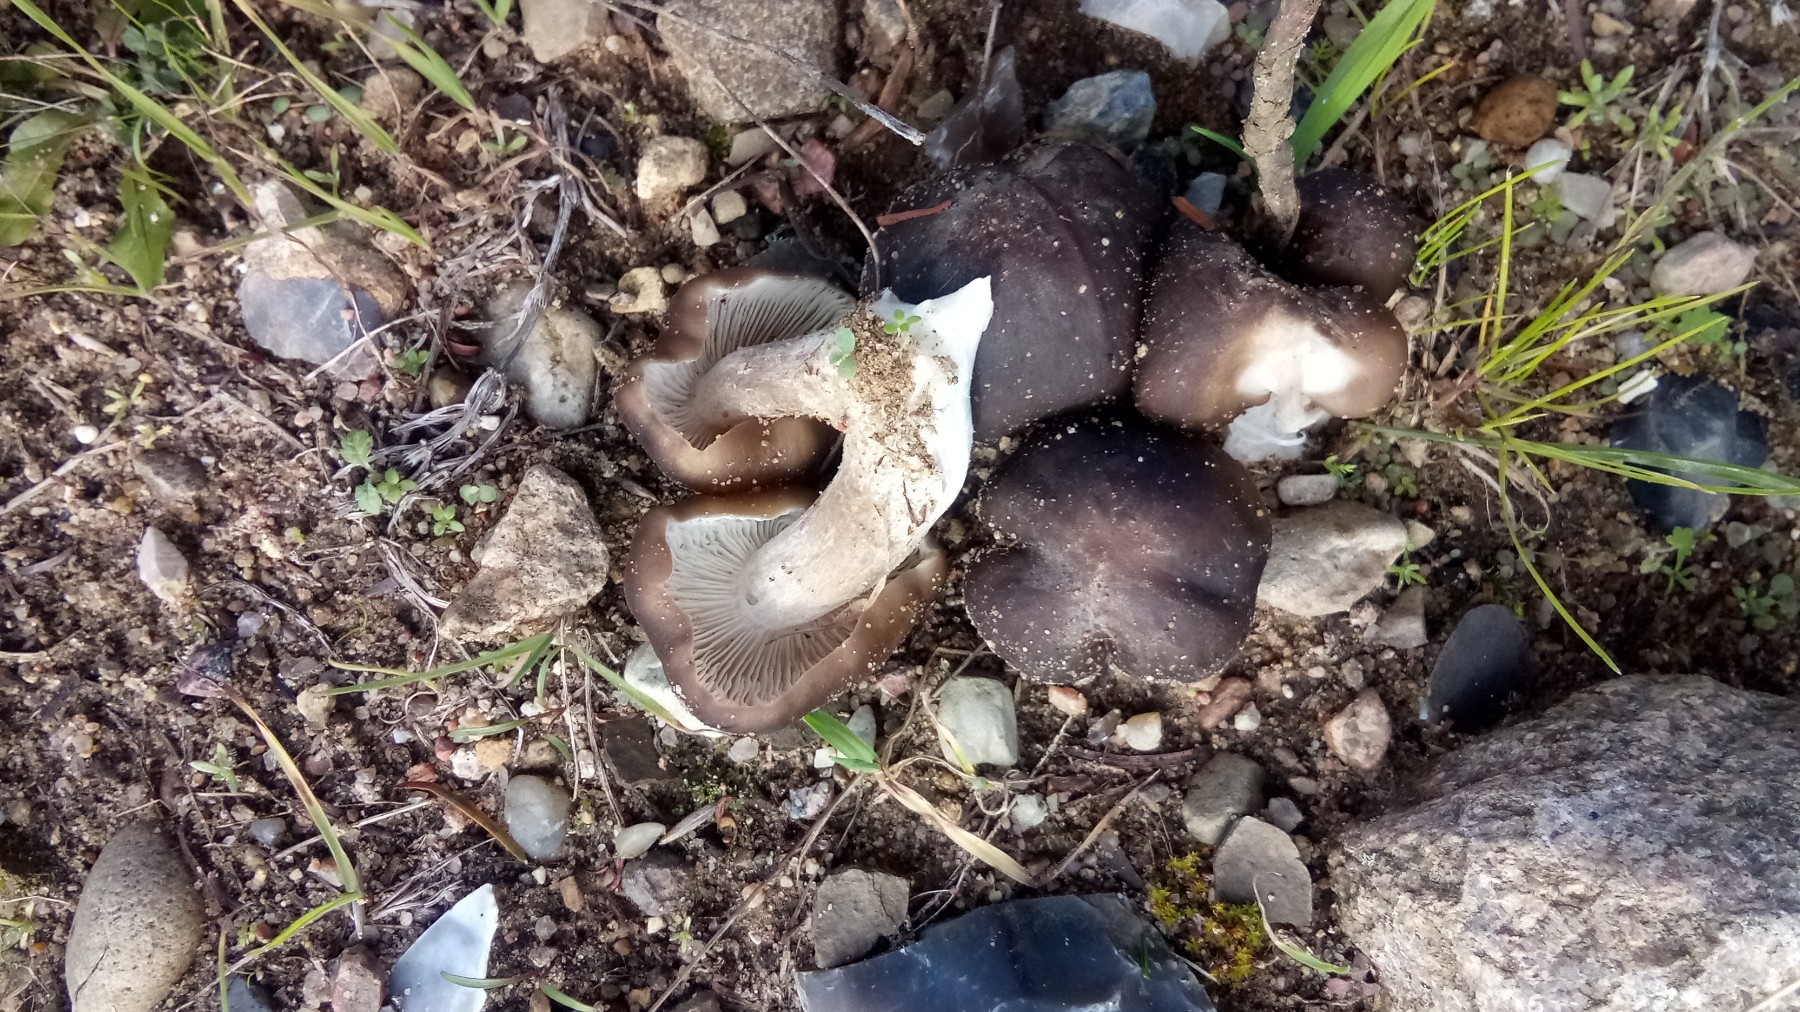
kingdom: Fungi
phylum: Basidiomycota
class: Agaricomycetes
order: Agaricales
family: Lyophyllaceae
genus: Lyophyllum
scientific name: Lyophyllum decastes
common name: røggrå gråblad
